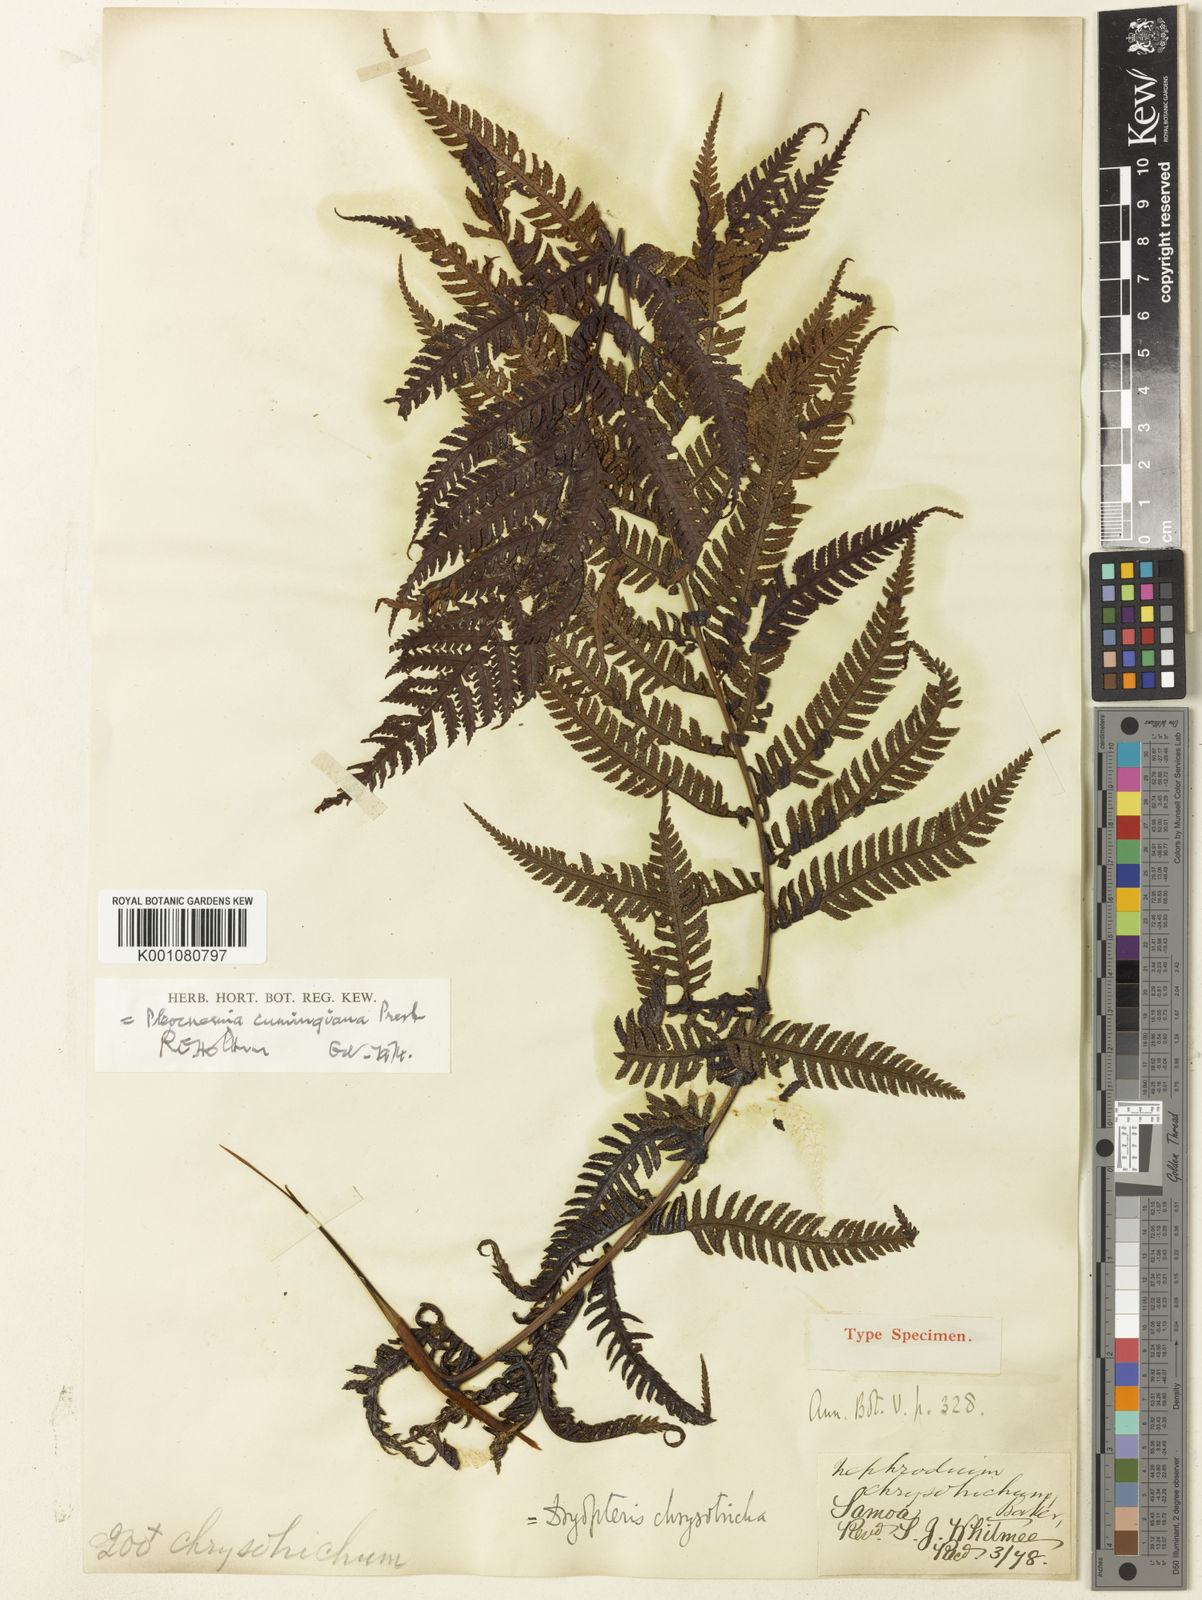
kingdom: Plantae
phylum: Tracheophyta
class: Polypodiopsida
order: Polypodiales
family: Dryopteridaceae
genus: Pleocnemia
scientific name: Pleocnemia cumingiana
